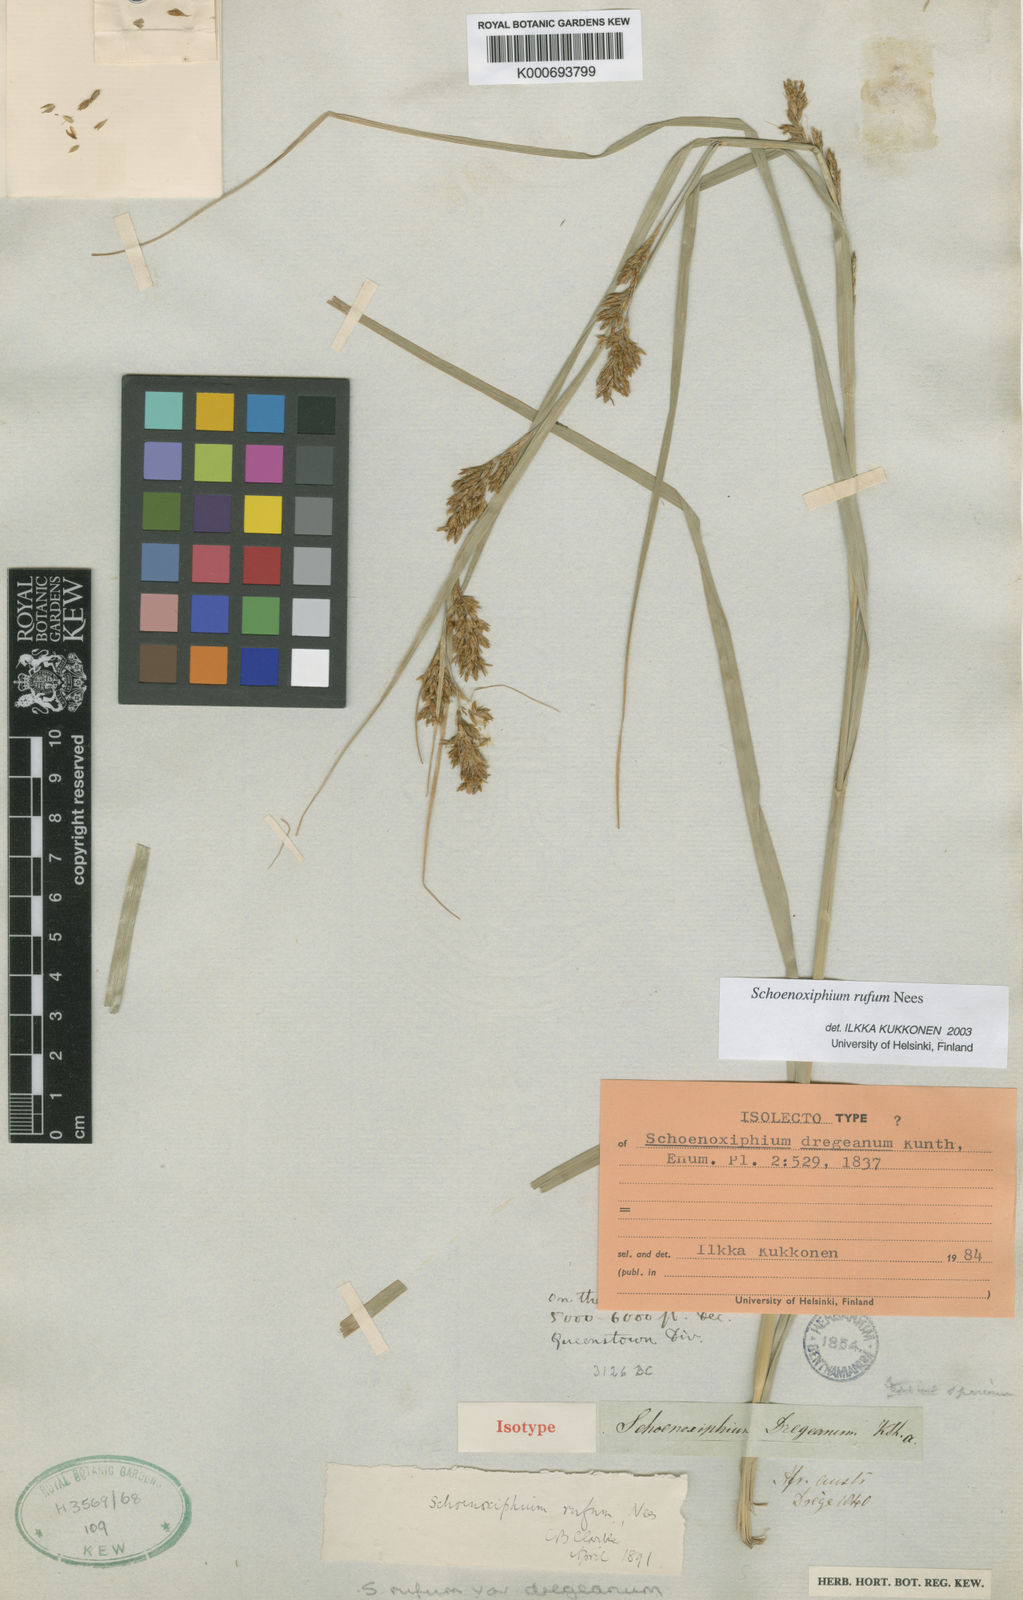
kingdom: Plantae
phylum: Tracheophyta
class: Liliopsida
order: Poales
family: Cyperaceae
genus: Carex
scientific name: Carex ludwigii
